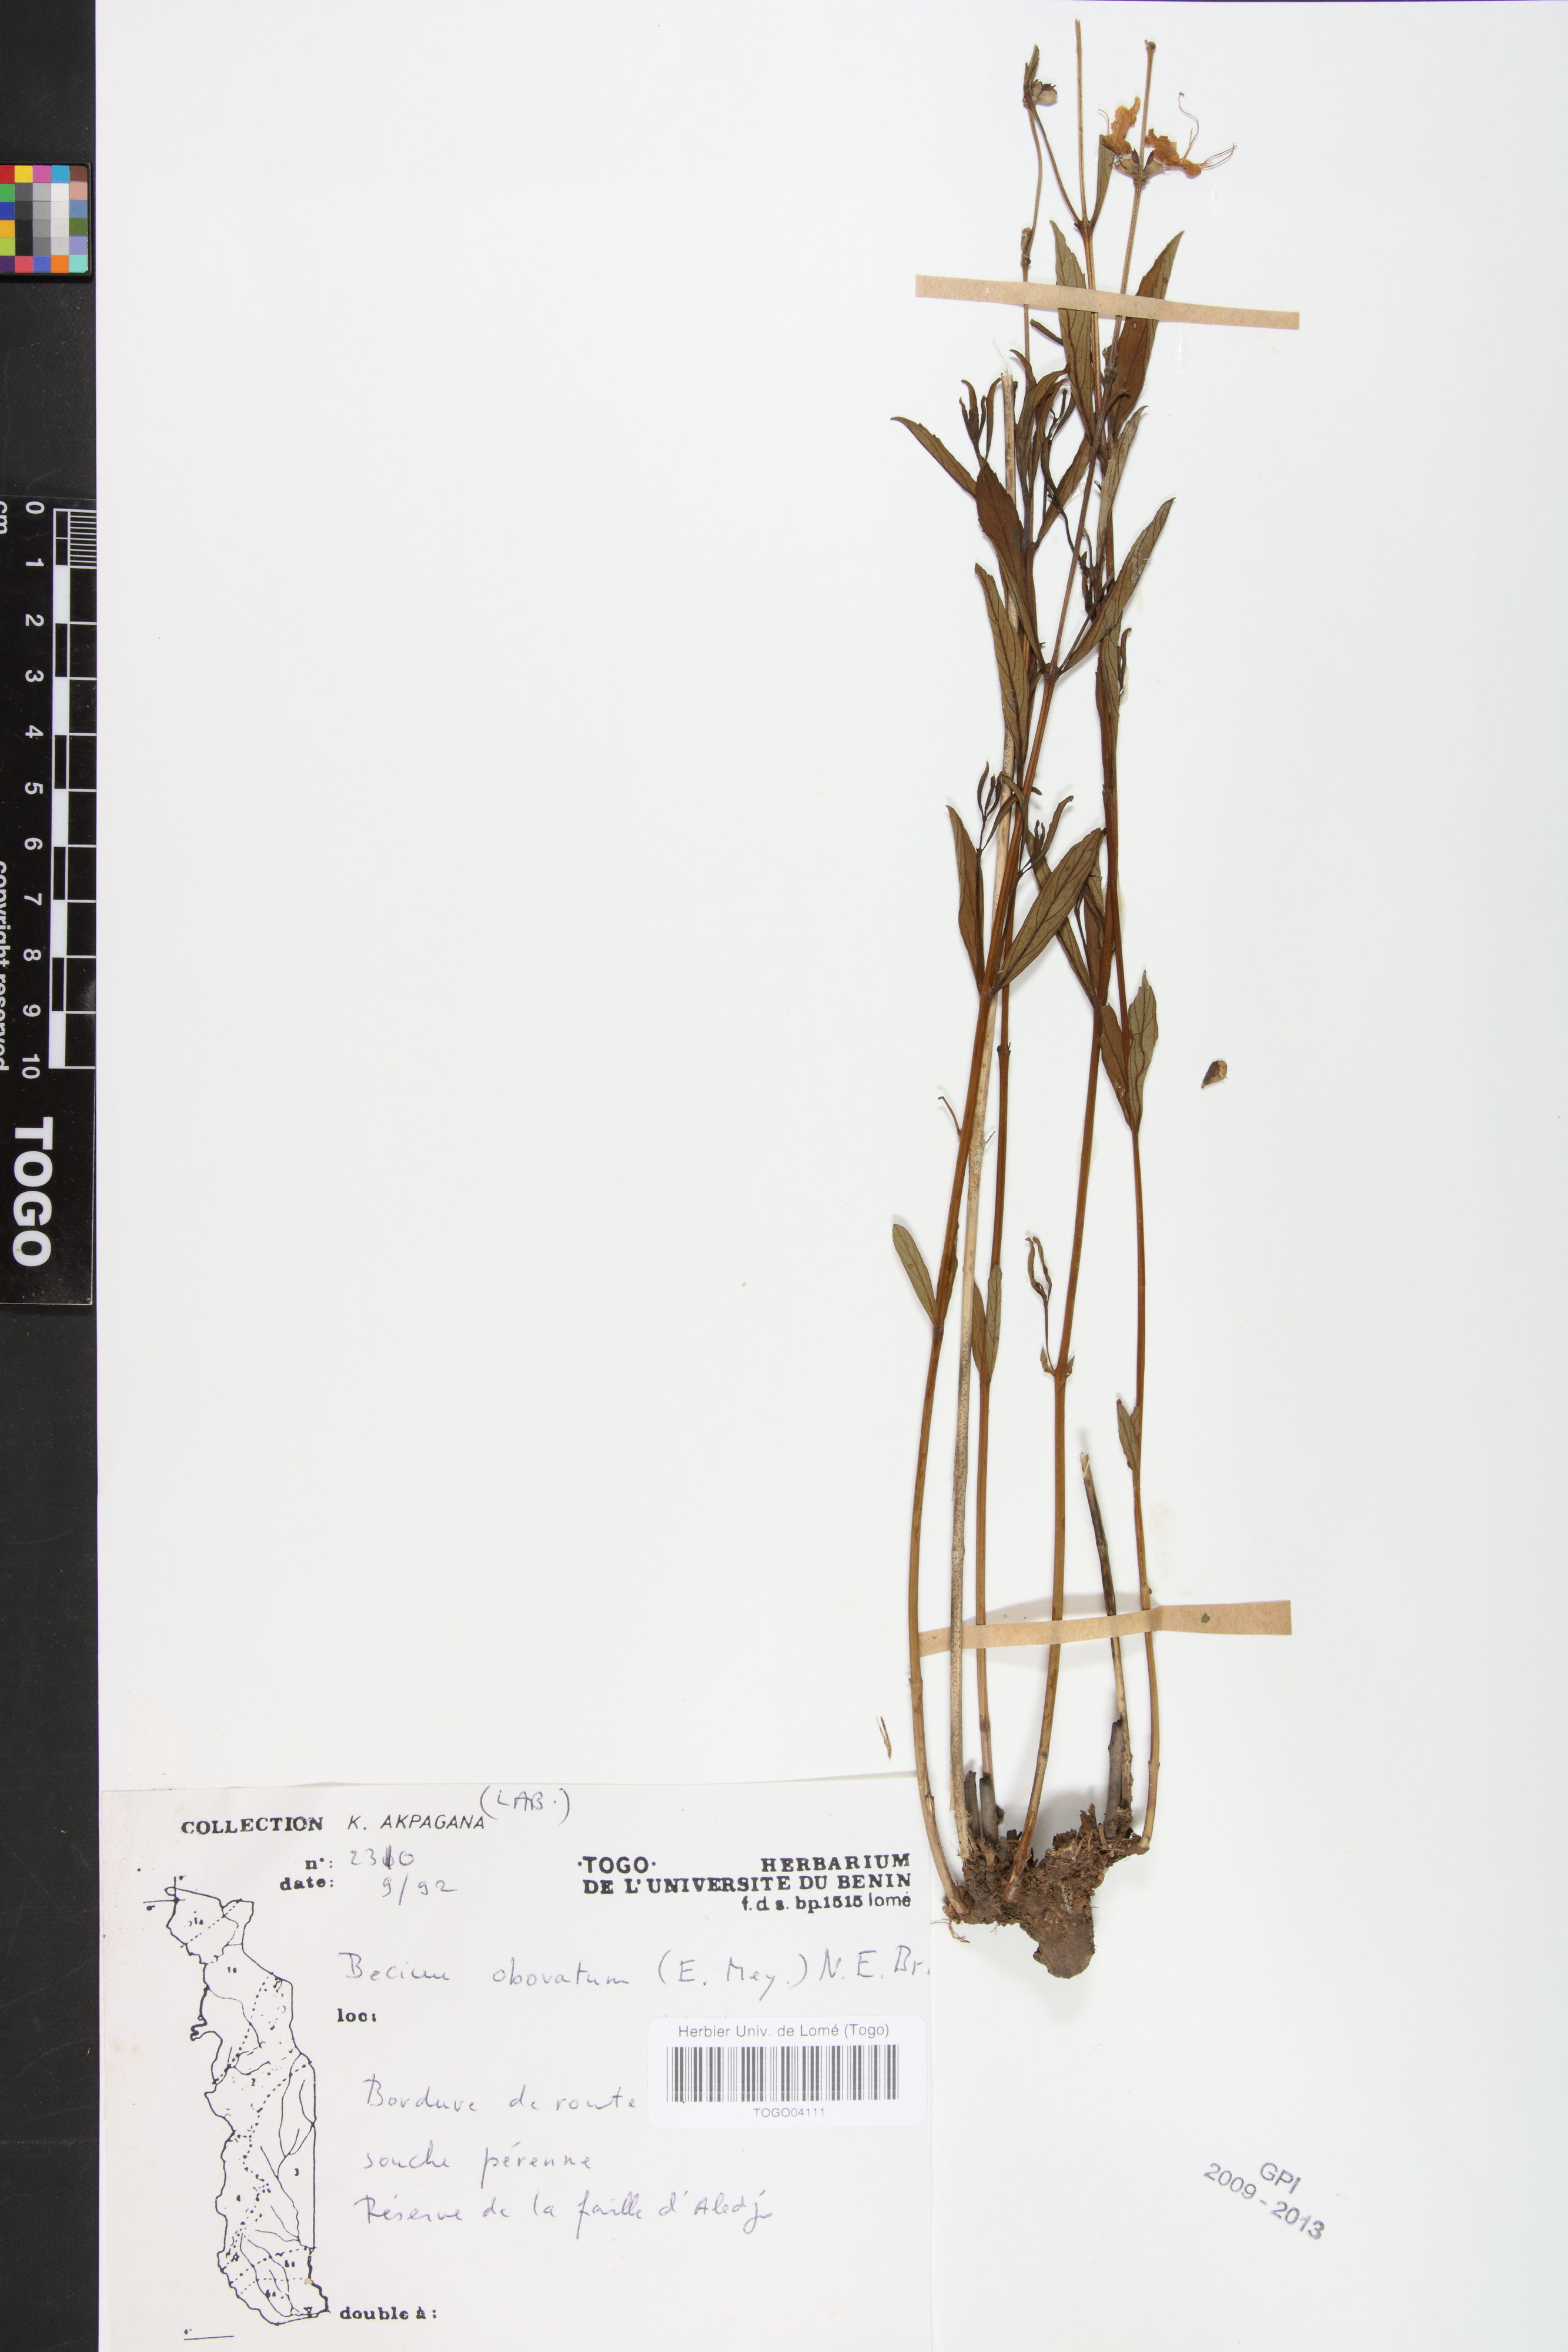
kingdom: Plantae
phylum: Tracheophyta
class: Magnoliopsida
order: Lamiales
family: Lamiaceae
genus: Ocimum
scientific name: Ocimum obovatum
